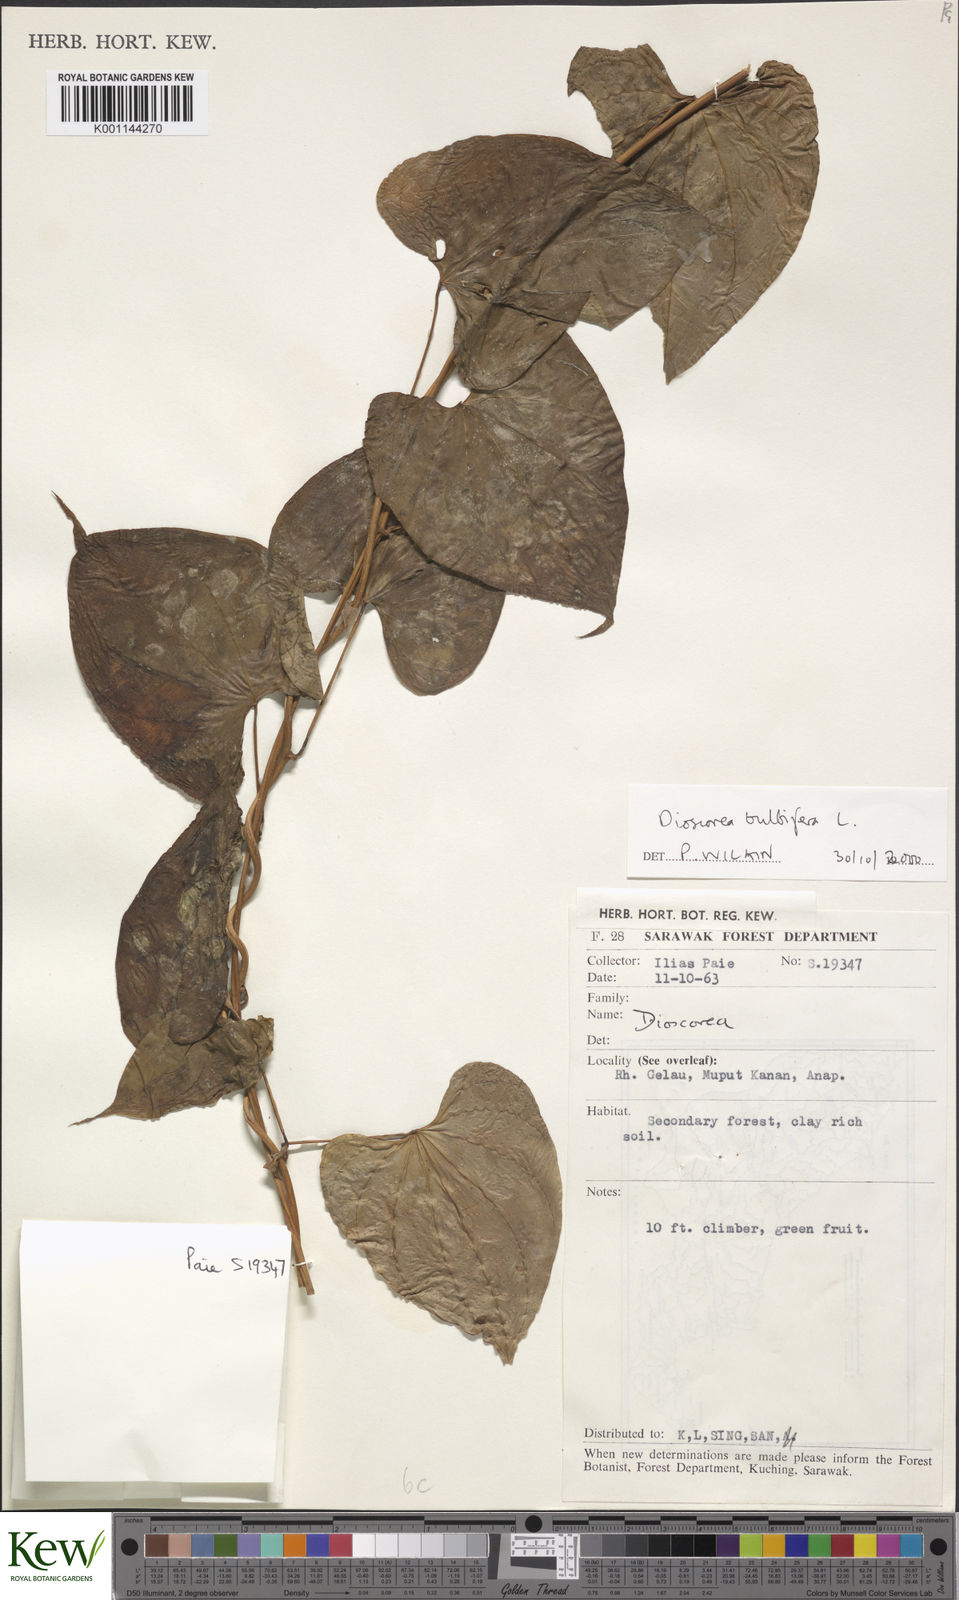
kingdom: Plantae
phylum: Tracheophyta
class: Liliopsida
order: Dioscoreales
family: Dioscoreaceae
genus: Dioscorea
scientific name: Dioscorea bulbifera
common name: Air yam
